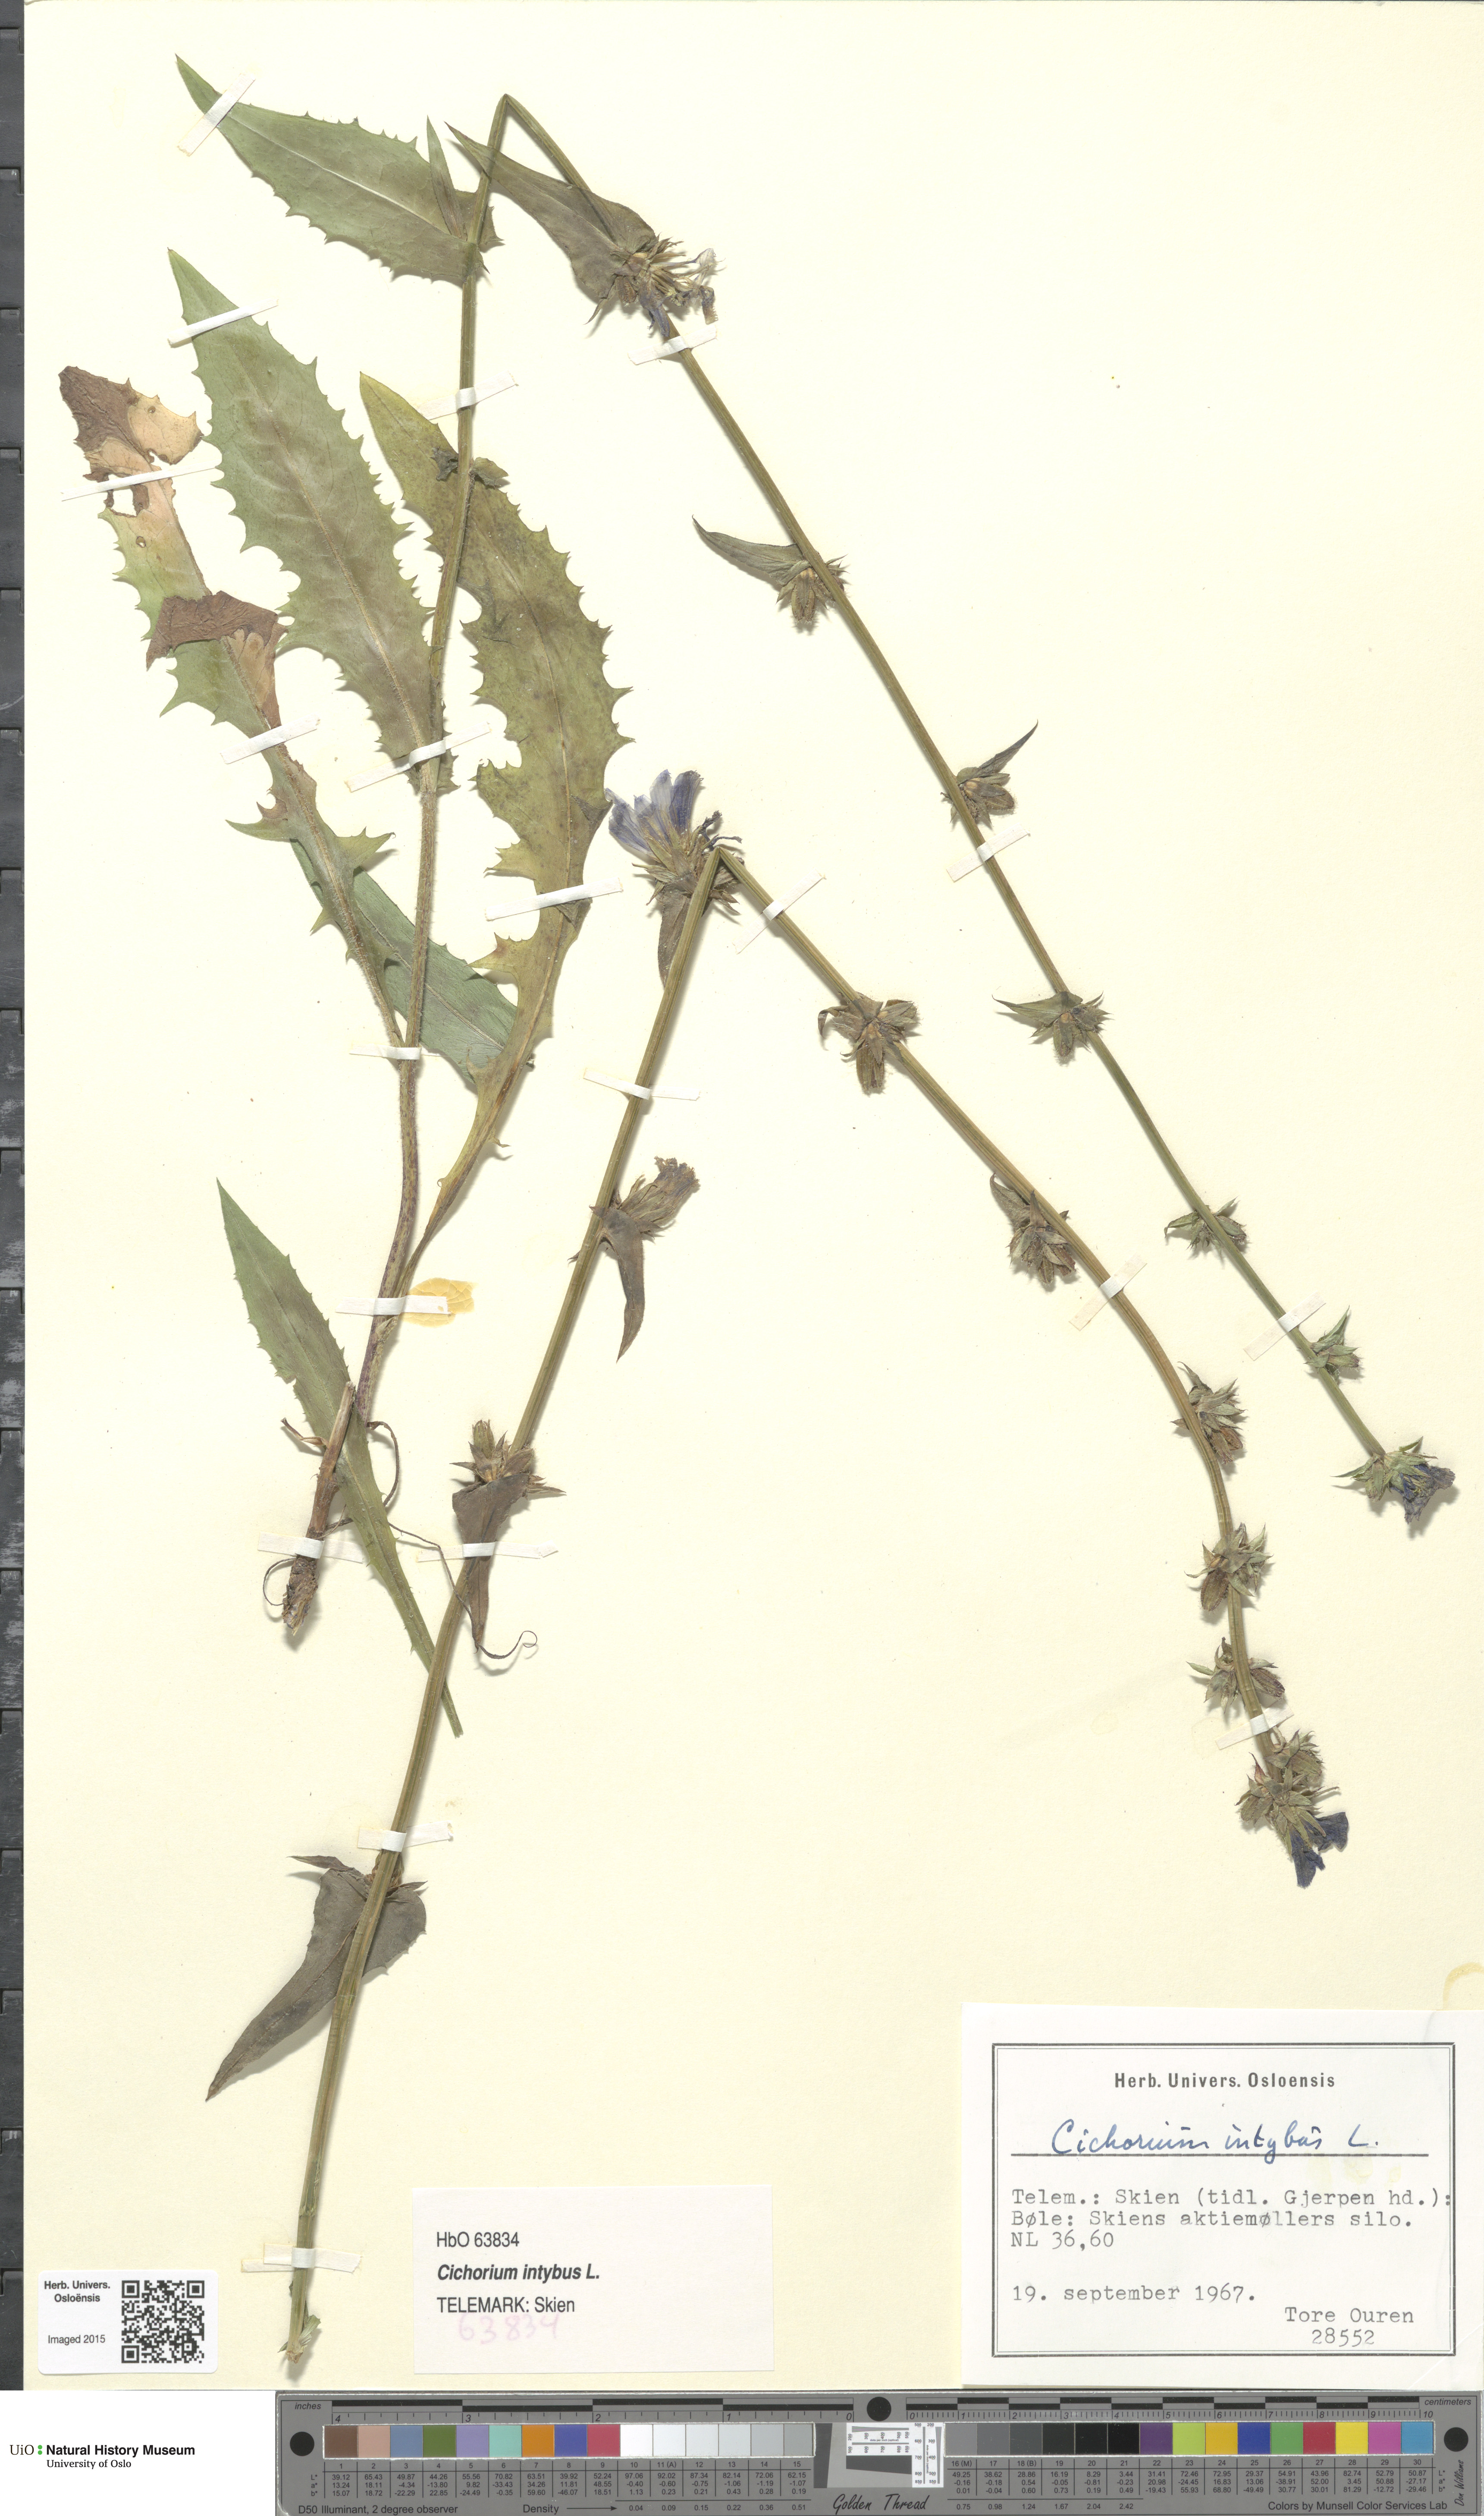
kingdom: Plantae
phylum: Tracheophyta
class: Magnoliopsida
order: Asterales
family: Asteraceae
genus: Cichorium
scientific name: Cichorium intybus
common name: Chicory
